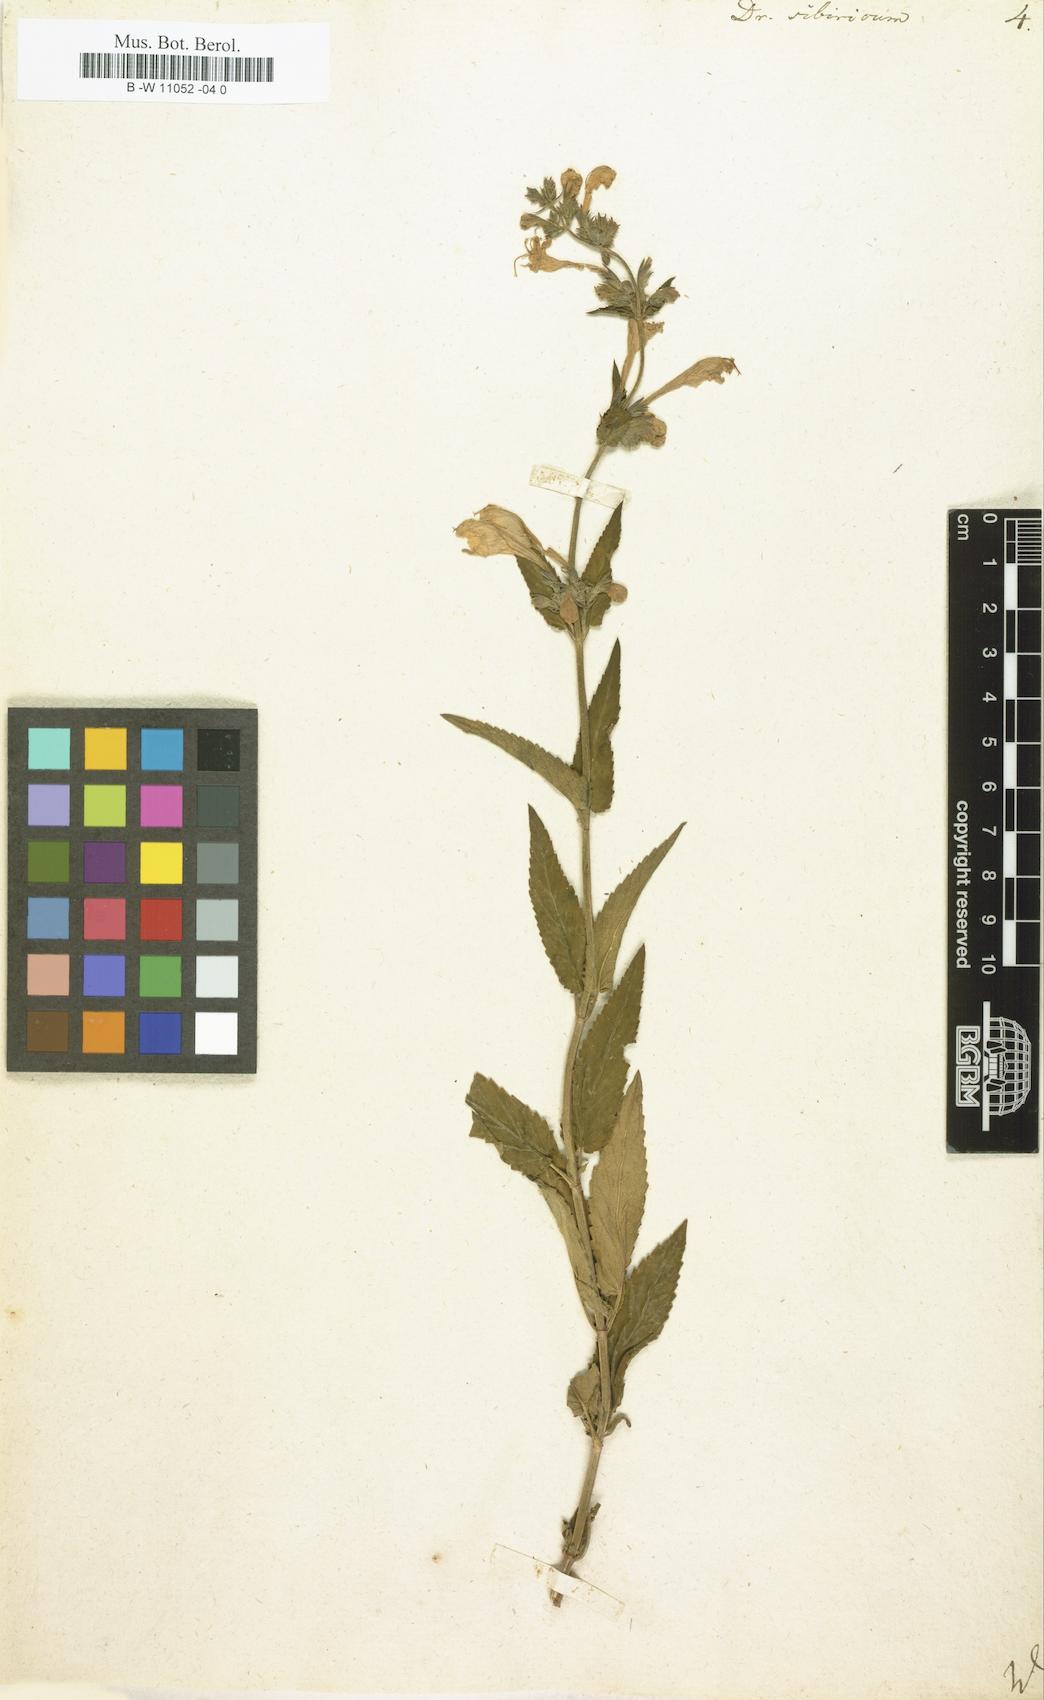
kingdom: Plantae
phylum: Tracheophyta
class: Magnoliopsida
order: Lamiales
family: Lamiaceae
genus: Nepeta
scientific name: Nepeta sibirica
